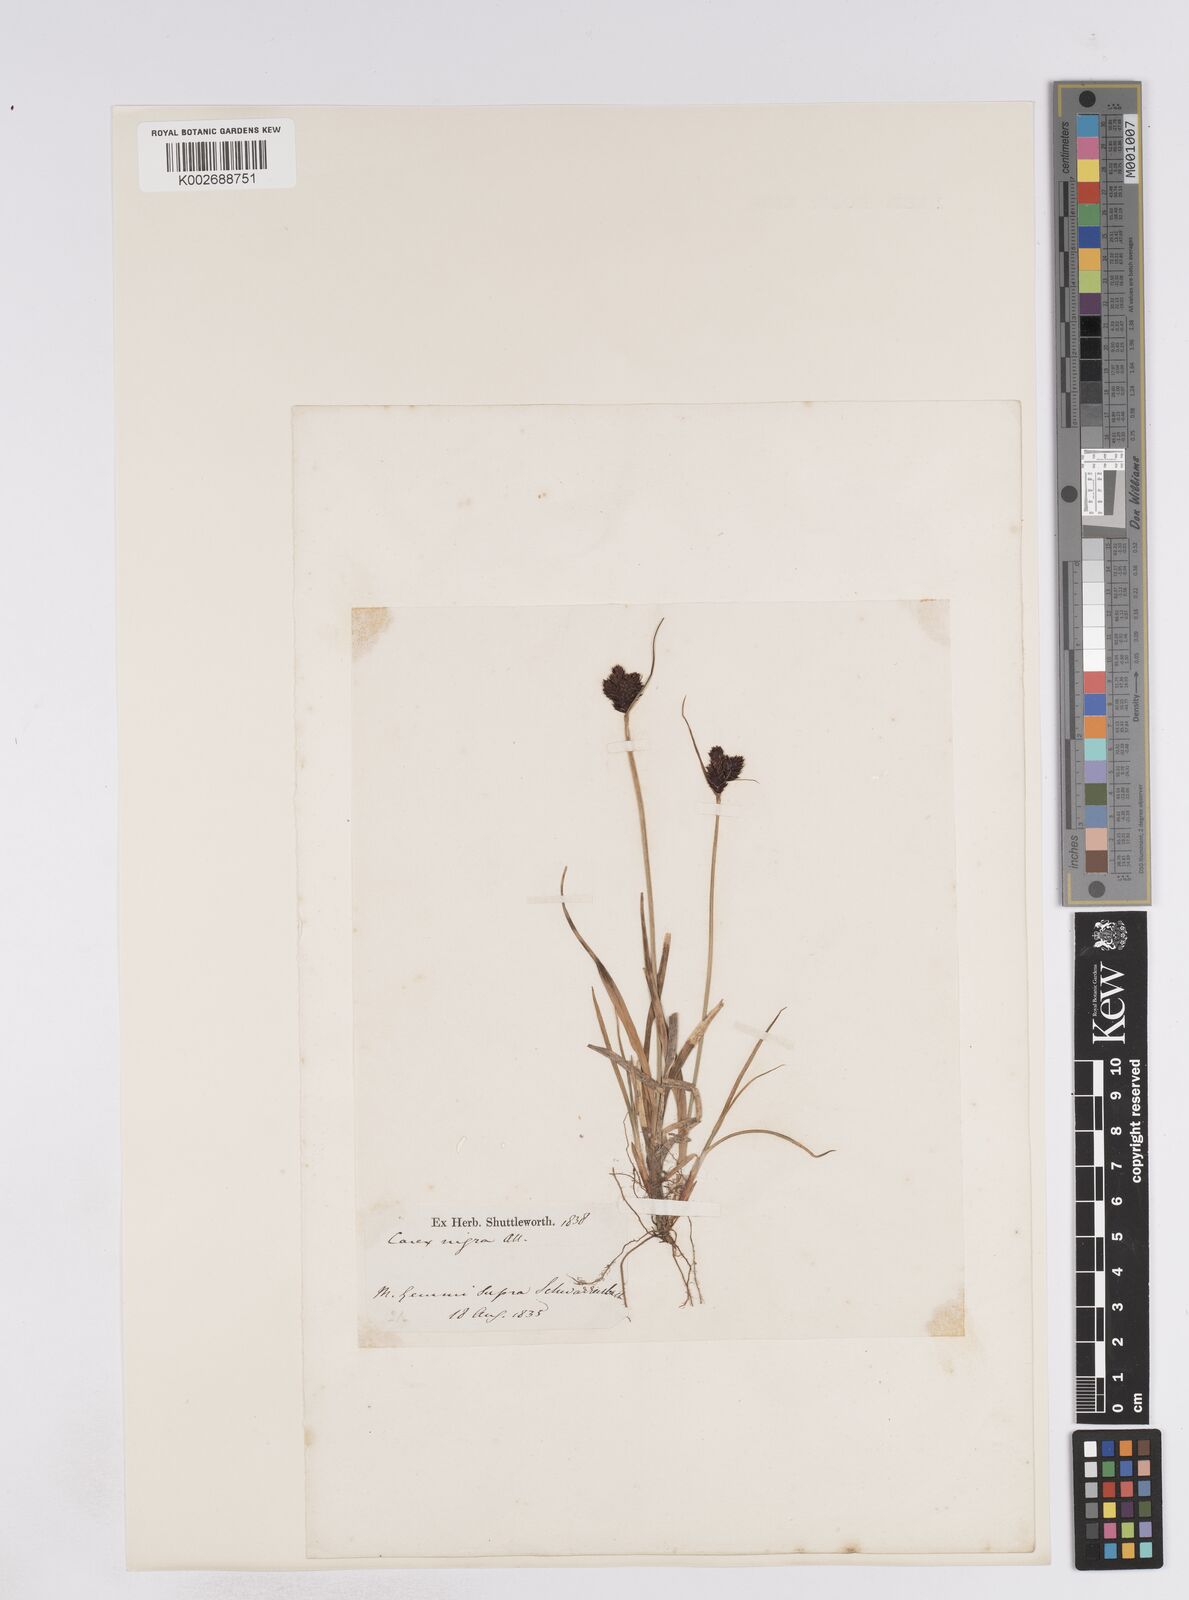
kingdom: Plantae
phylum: Tracheophyta
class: Liliopsida
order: Poales
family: Cyperaceae
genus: Carex
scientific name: Carex parviflora
